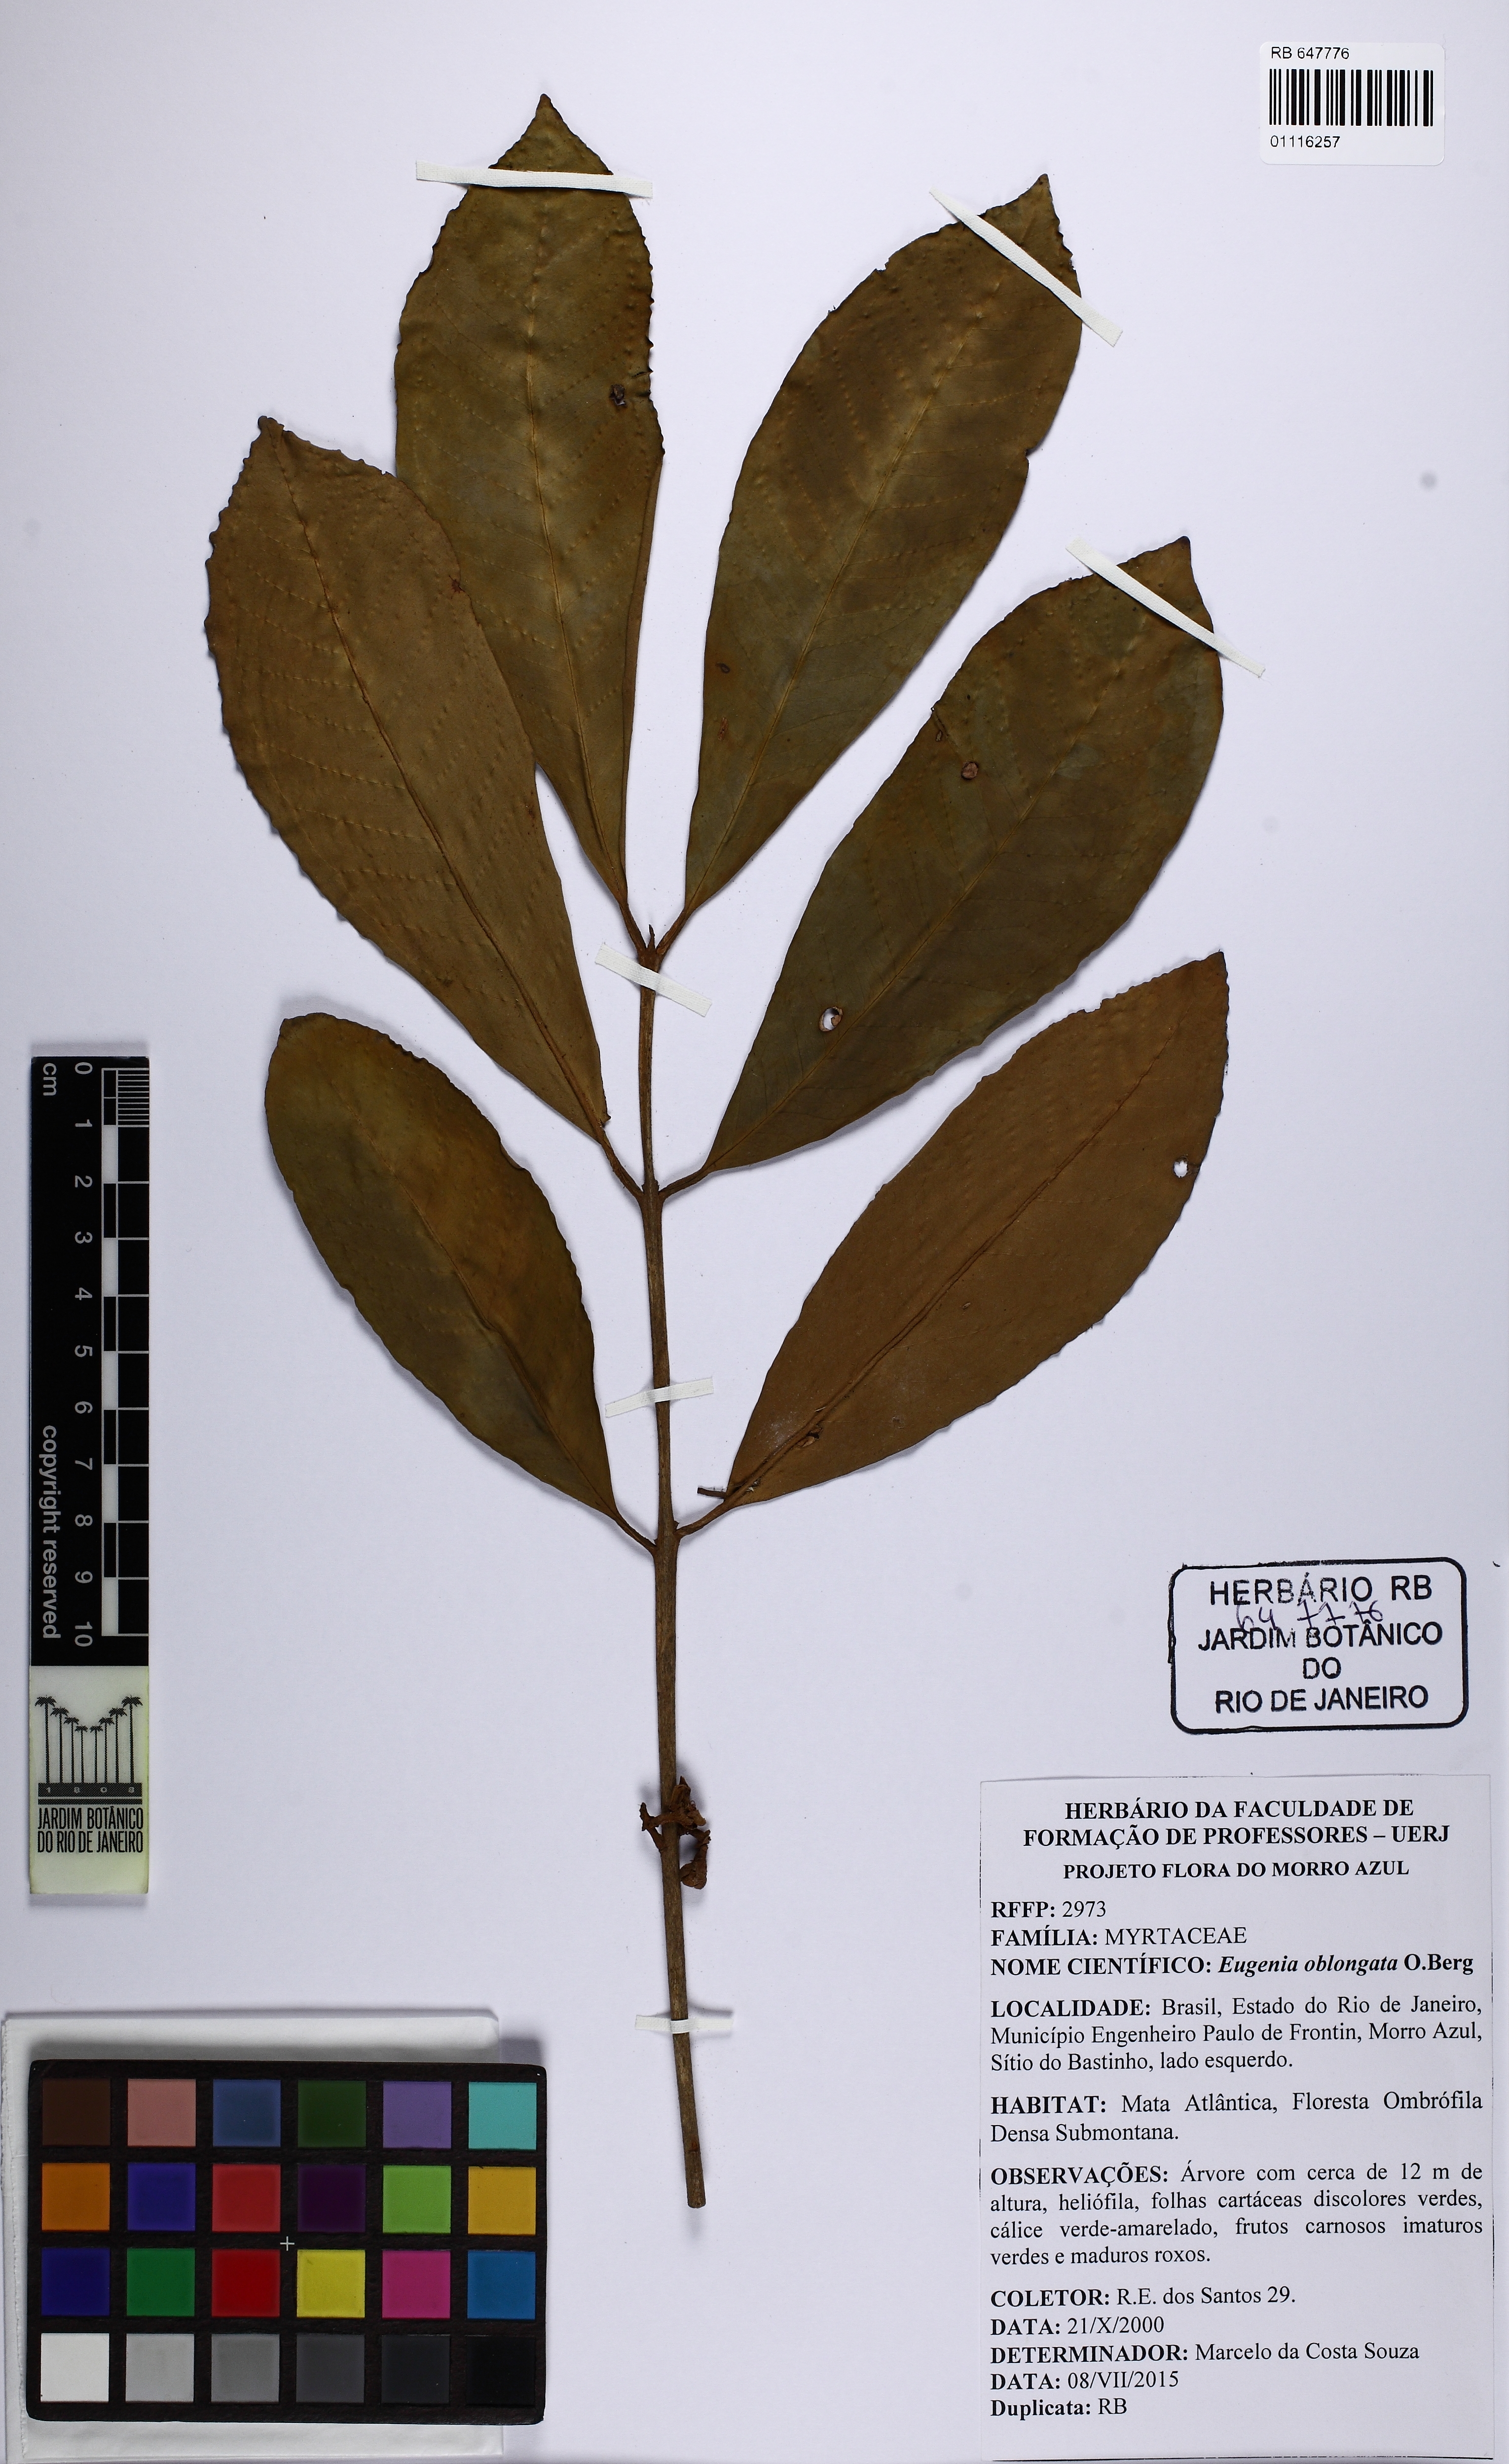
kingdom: Plantae
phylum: Tracheophyta
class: Magnoliopsida
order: Myrtales
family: Myrtaceae
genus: Eugenia
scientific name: Eugenia oblongata
